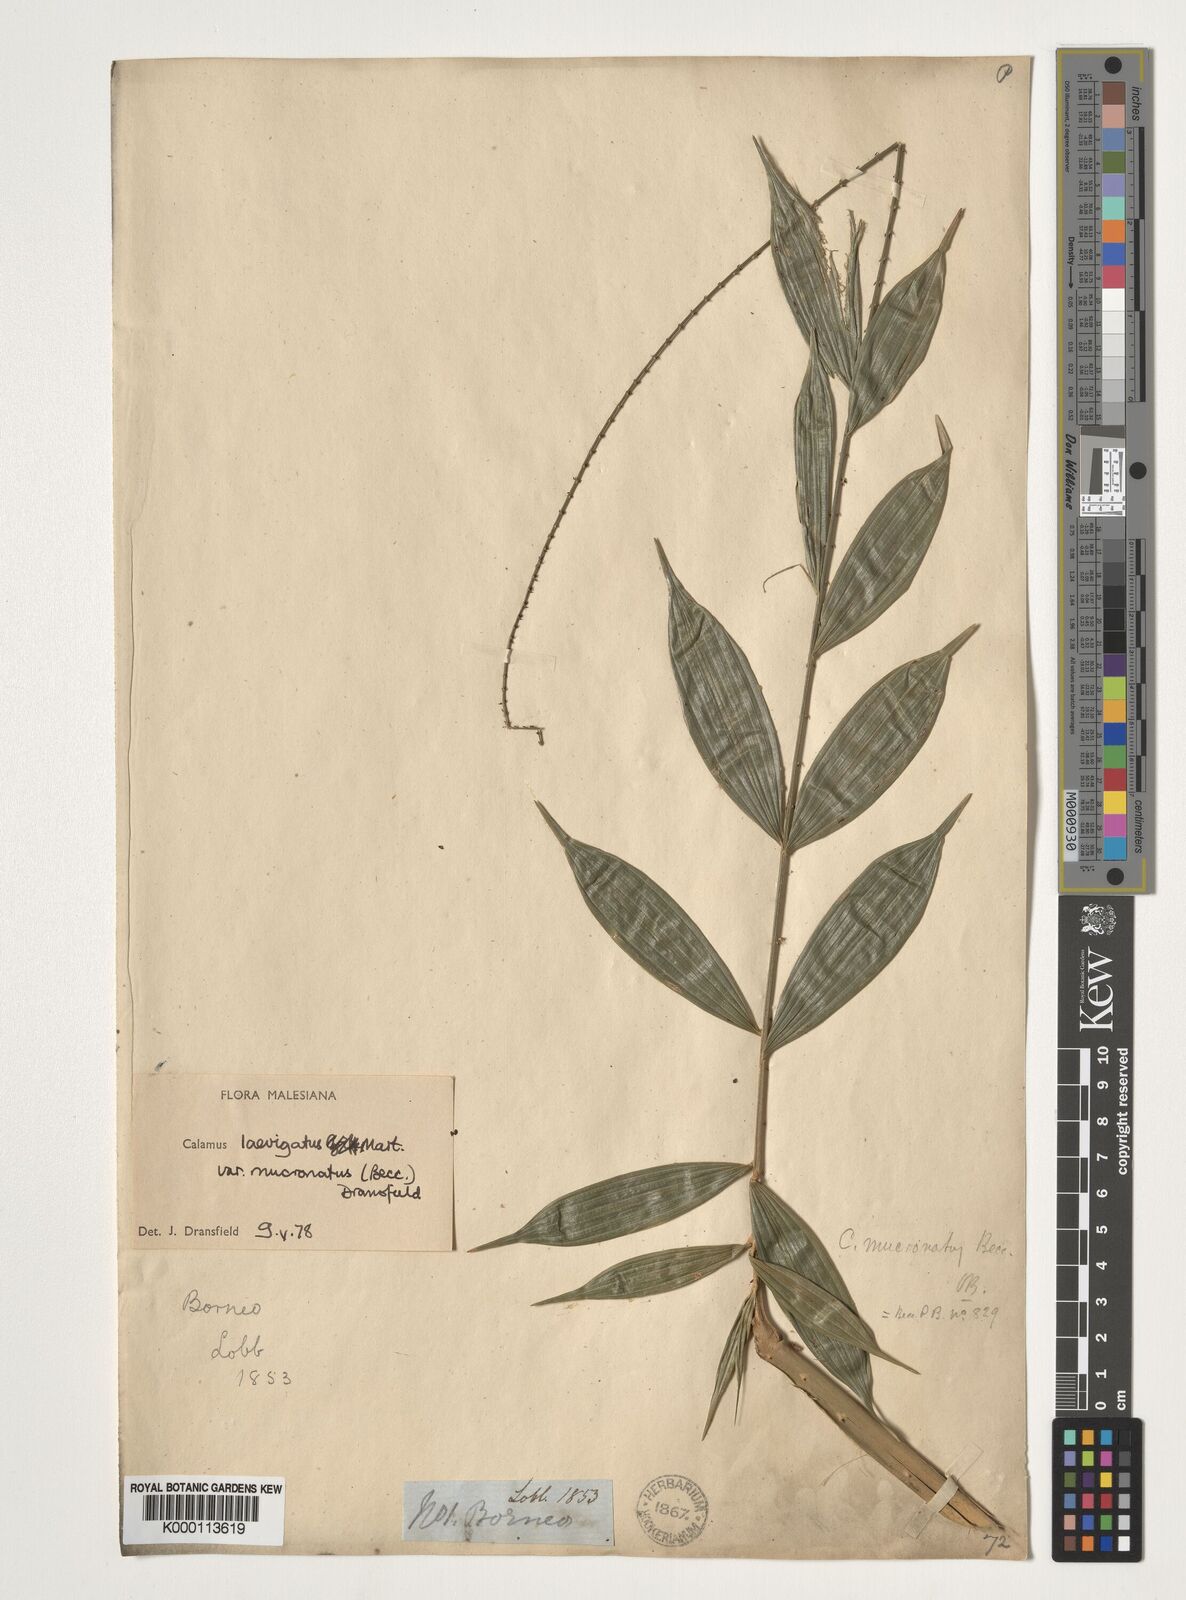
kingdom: Plantae
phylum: Tracheophyta
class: Liliopsida
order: Arecales
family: Arecaceae
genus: Calamus
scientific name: Calamus plicatus
